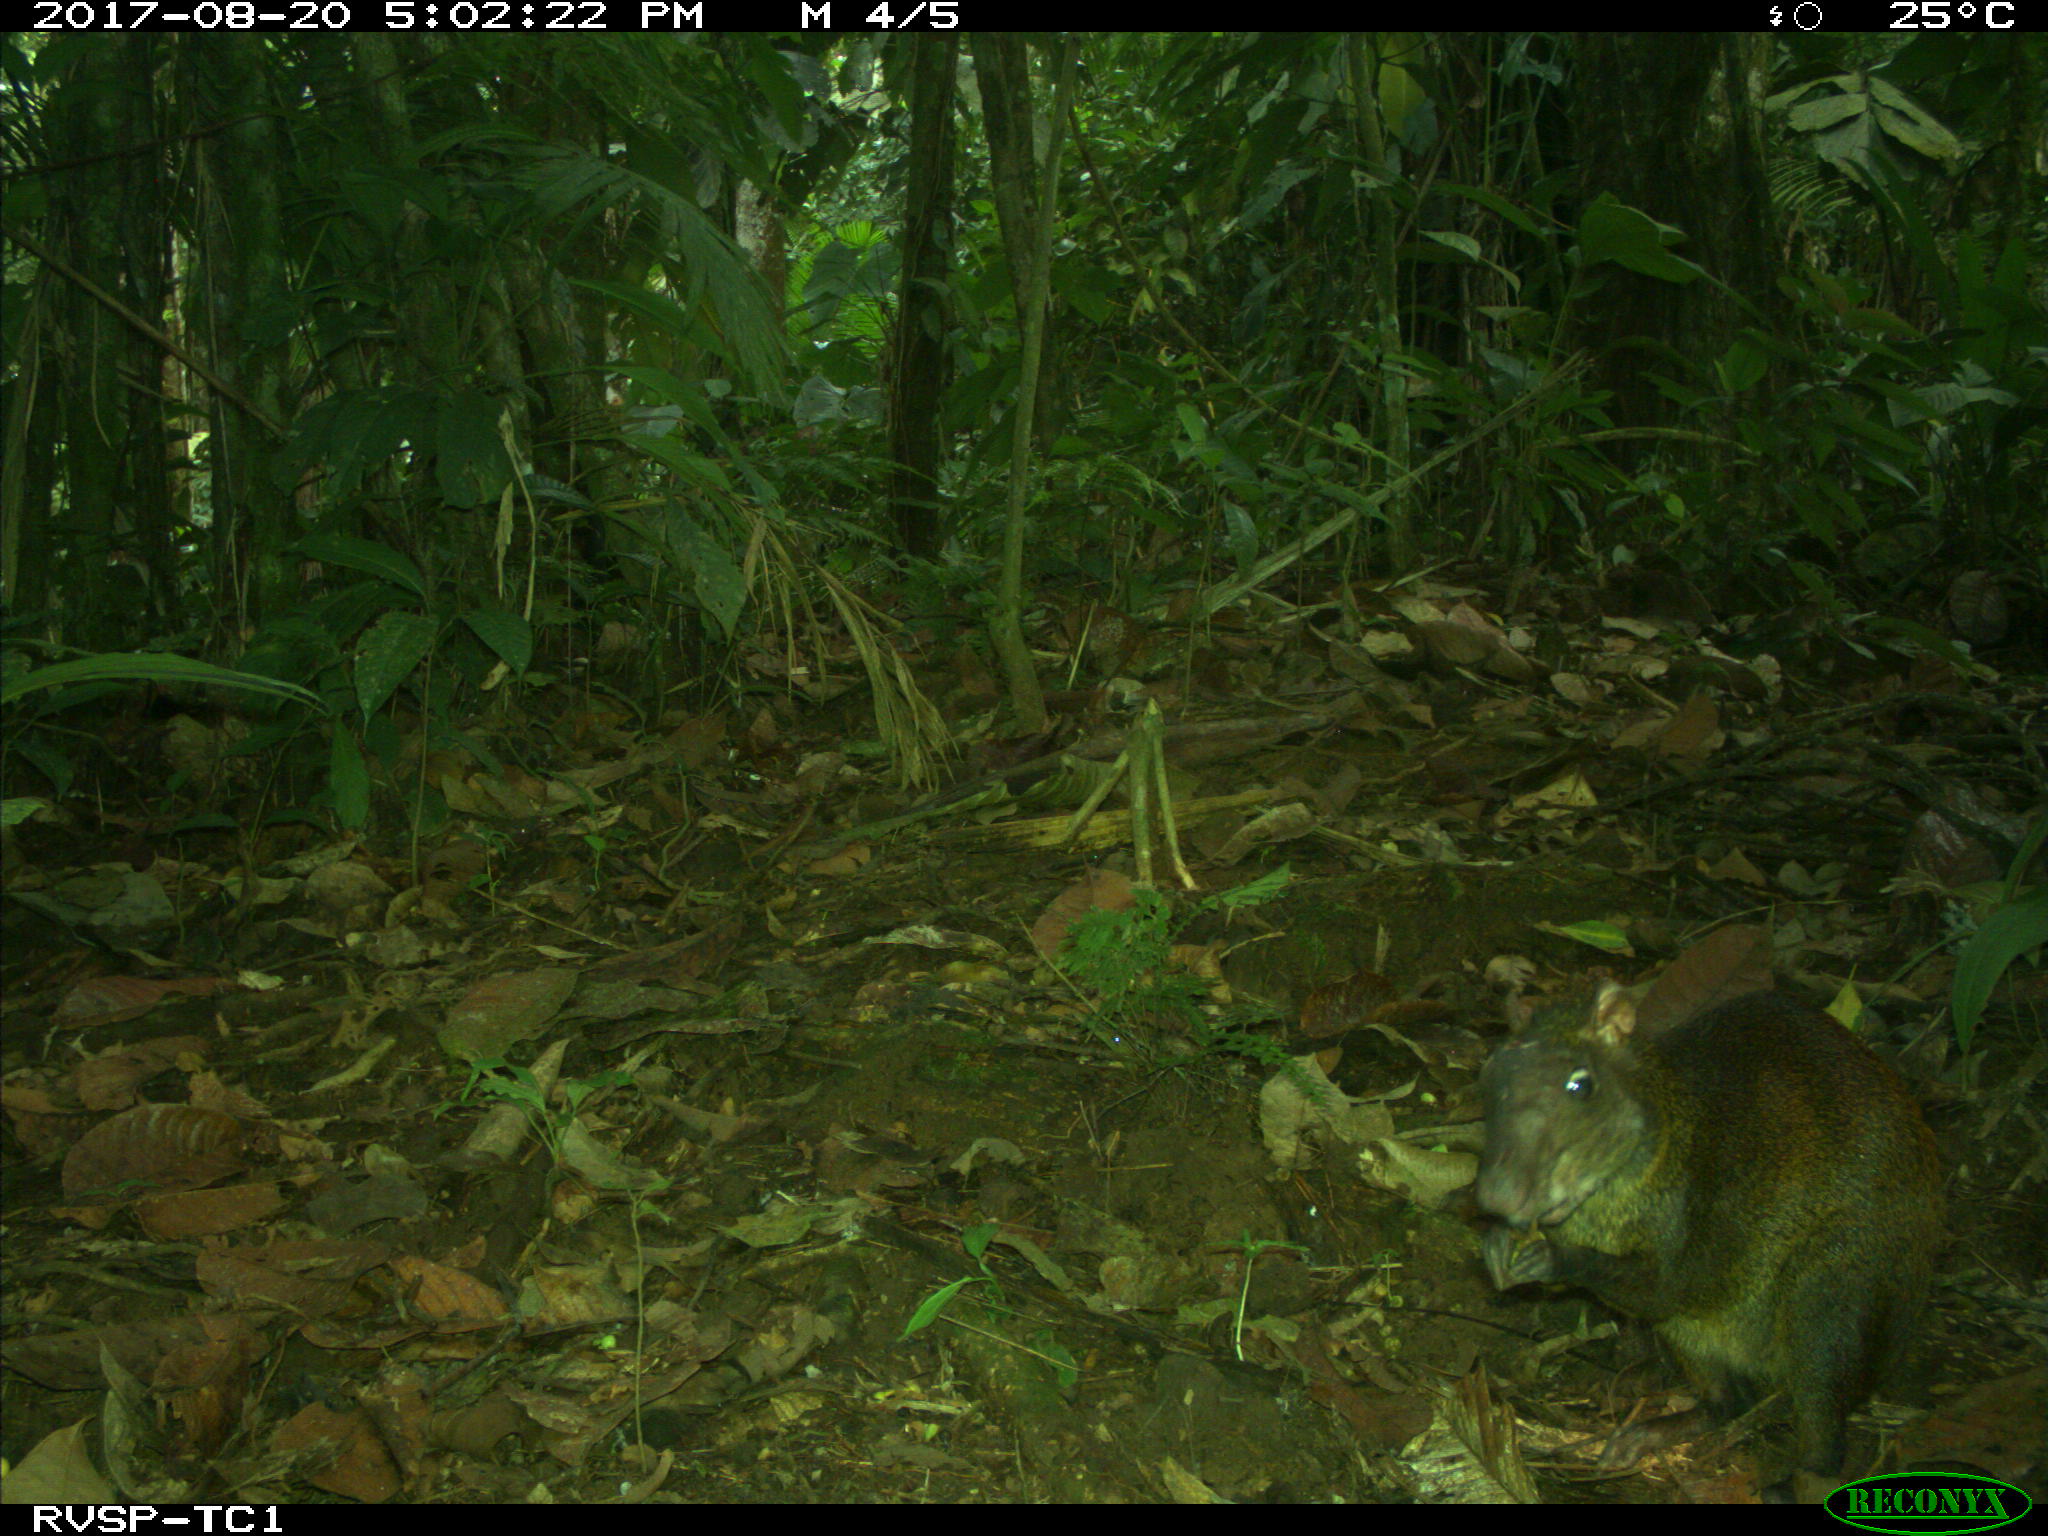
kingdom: Animalia
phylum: Chordata
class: Mammalia
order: Rodentia
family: Dasyproctidae
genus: Dasyprocta
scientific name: Dasyprocta punctata
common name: Central american agouti
